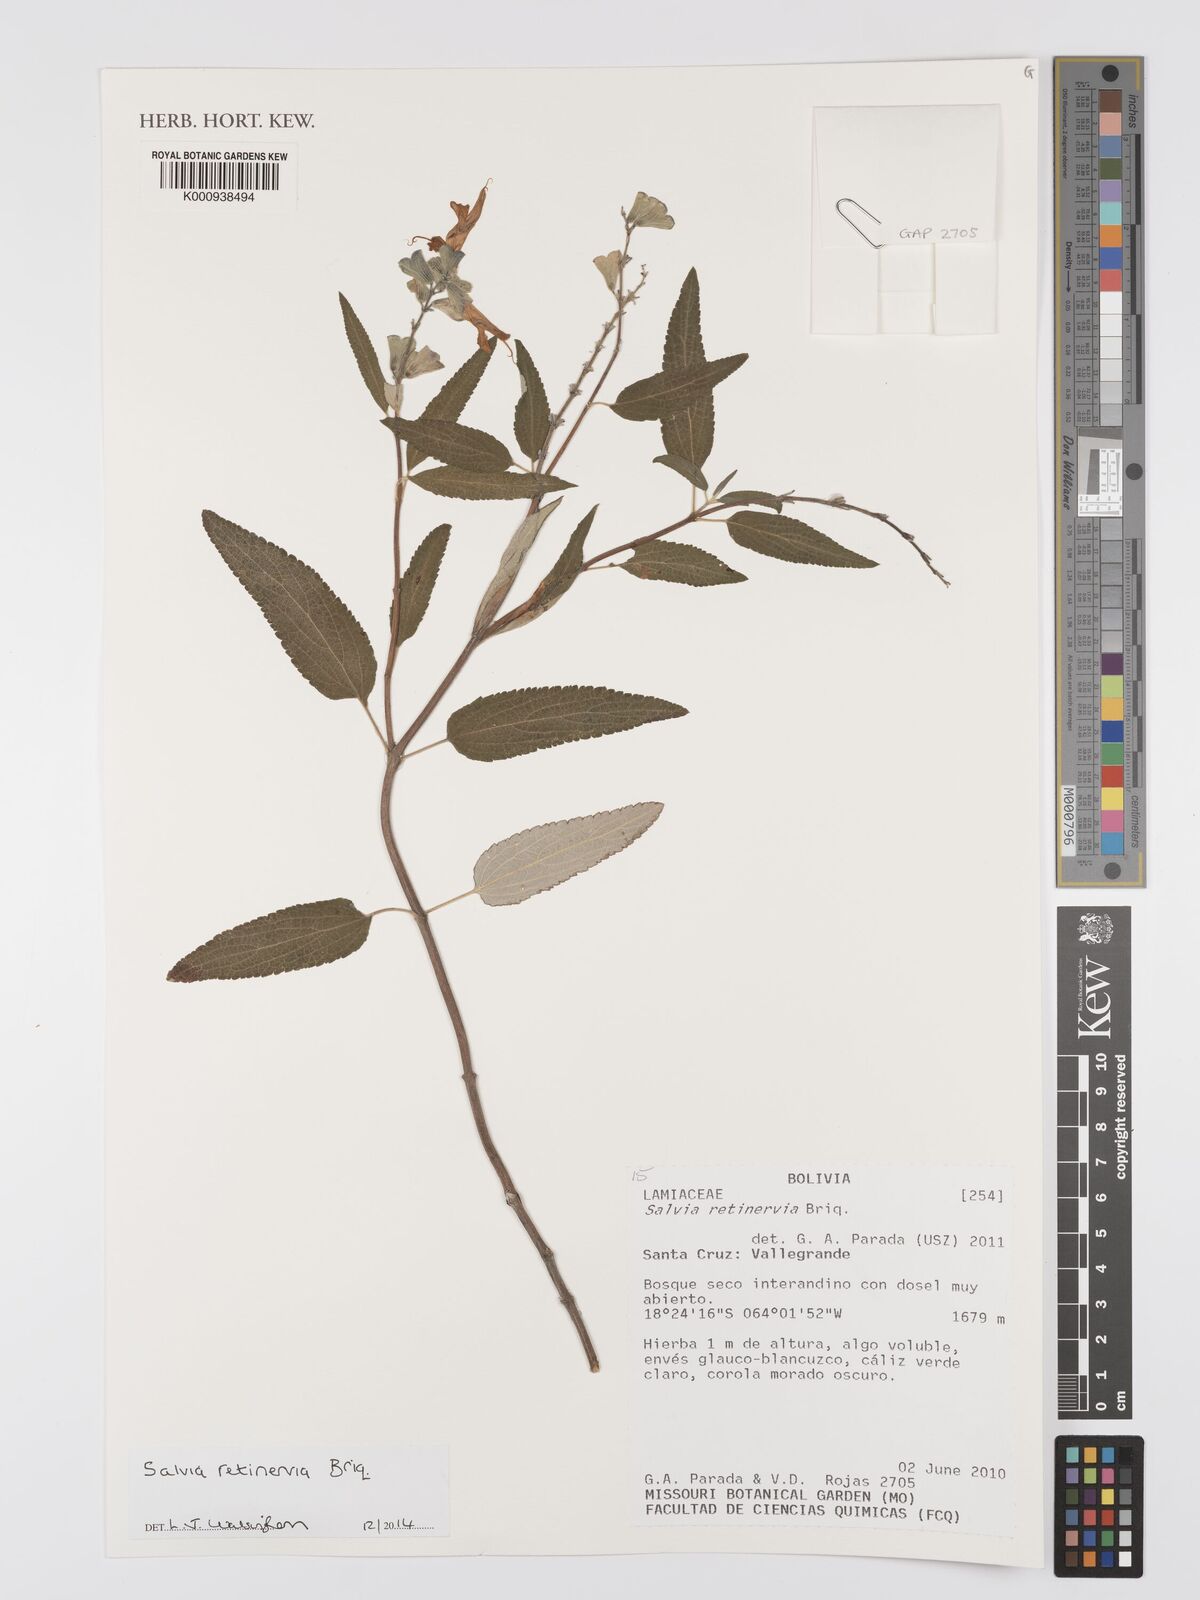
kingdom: Plantae
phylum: Tracheophyta
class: Magnoliopsida
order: Lamiales
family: Lamiaceae
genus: Salvia
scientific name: Salvia retinervia
